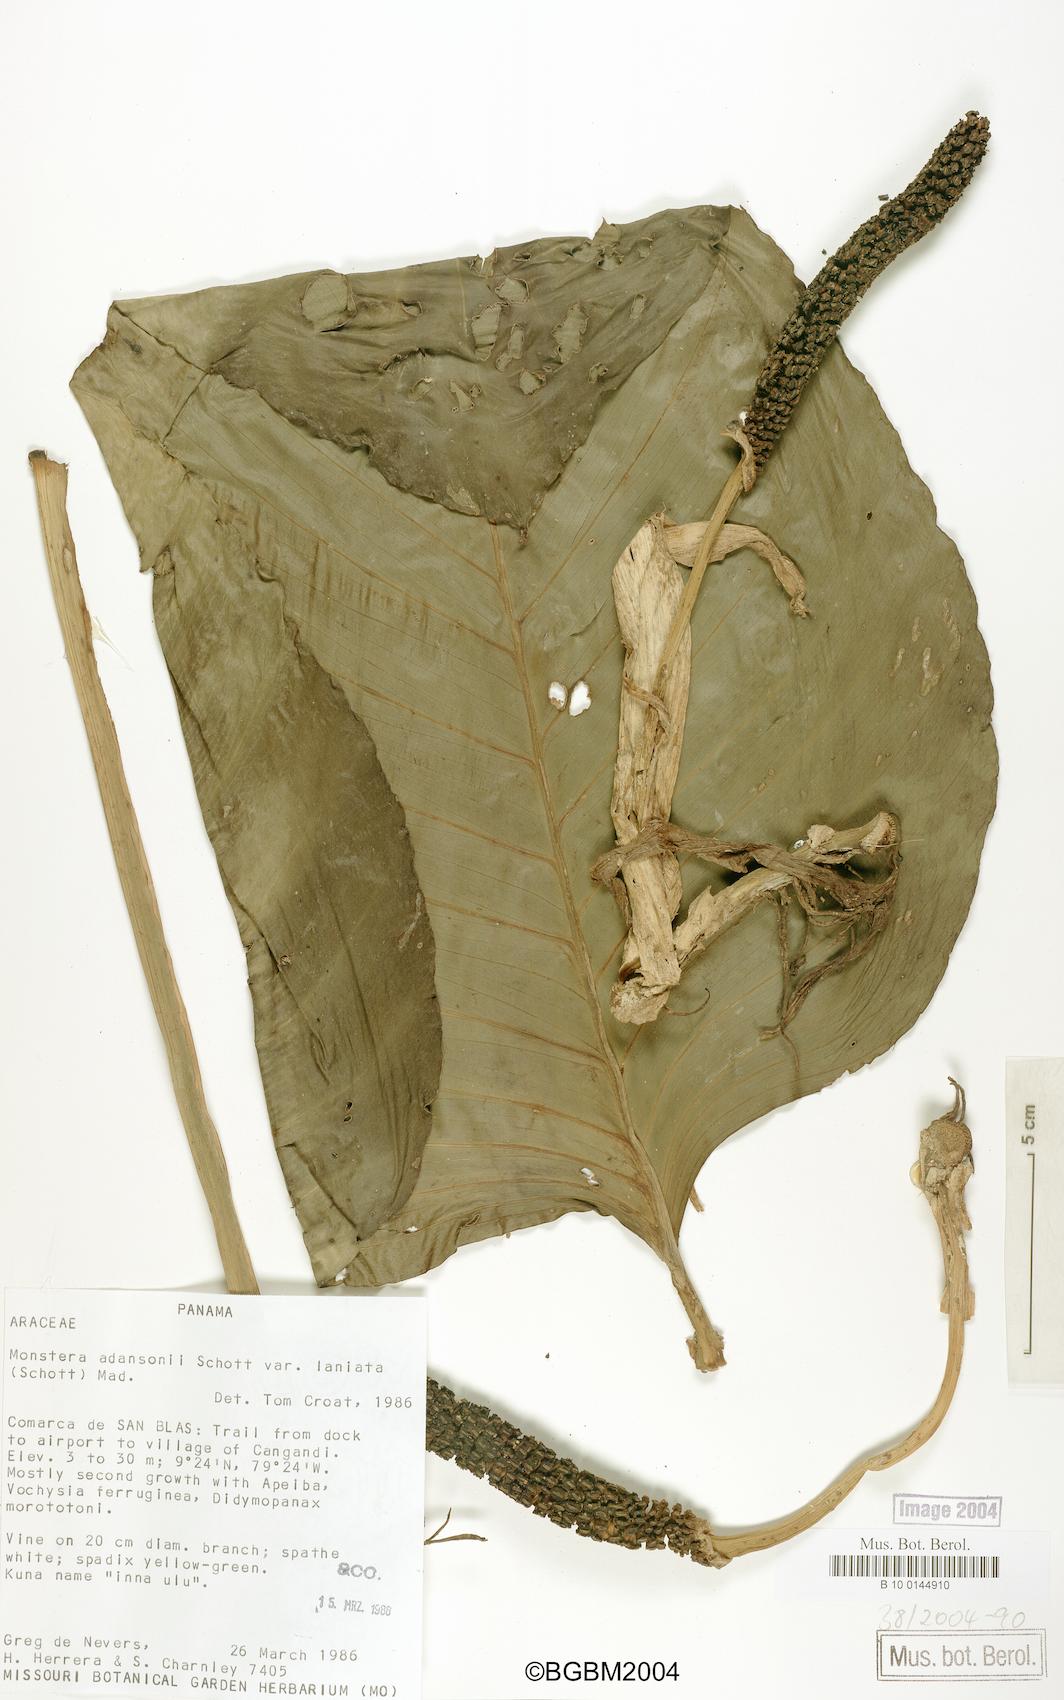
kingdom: Plantae
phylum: Tracheophyta
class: Liliopsida
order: Alismatales
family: Araceae
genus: Monstera
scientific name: Monstera adansonii
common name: Tarovine
